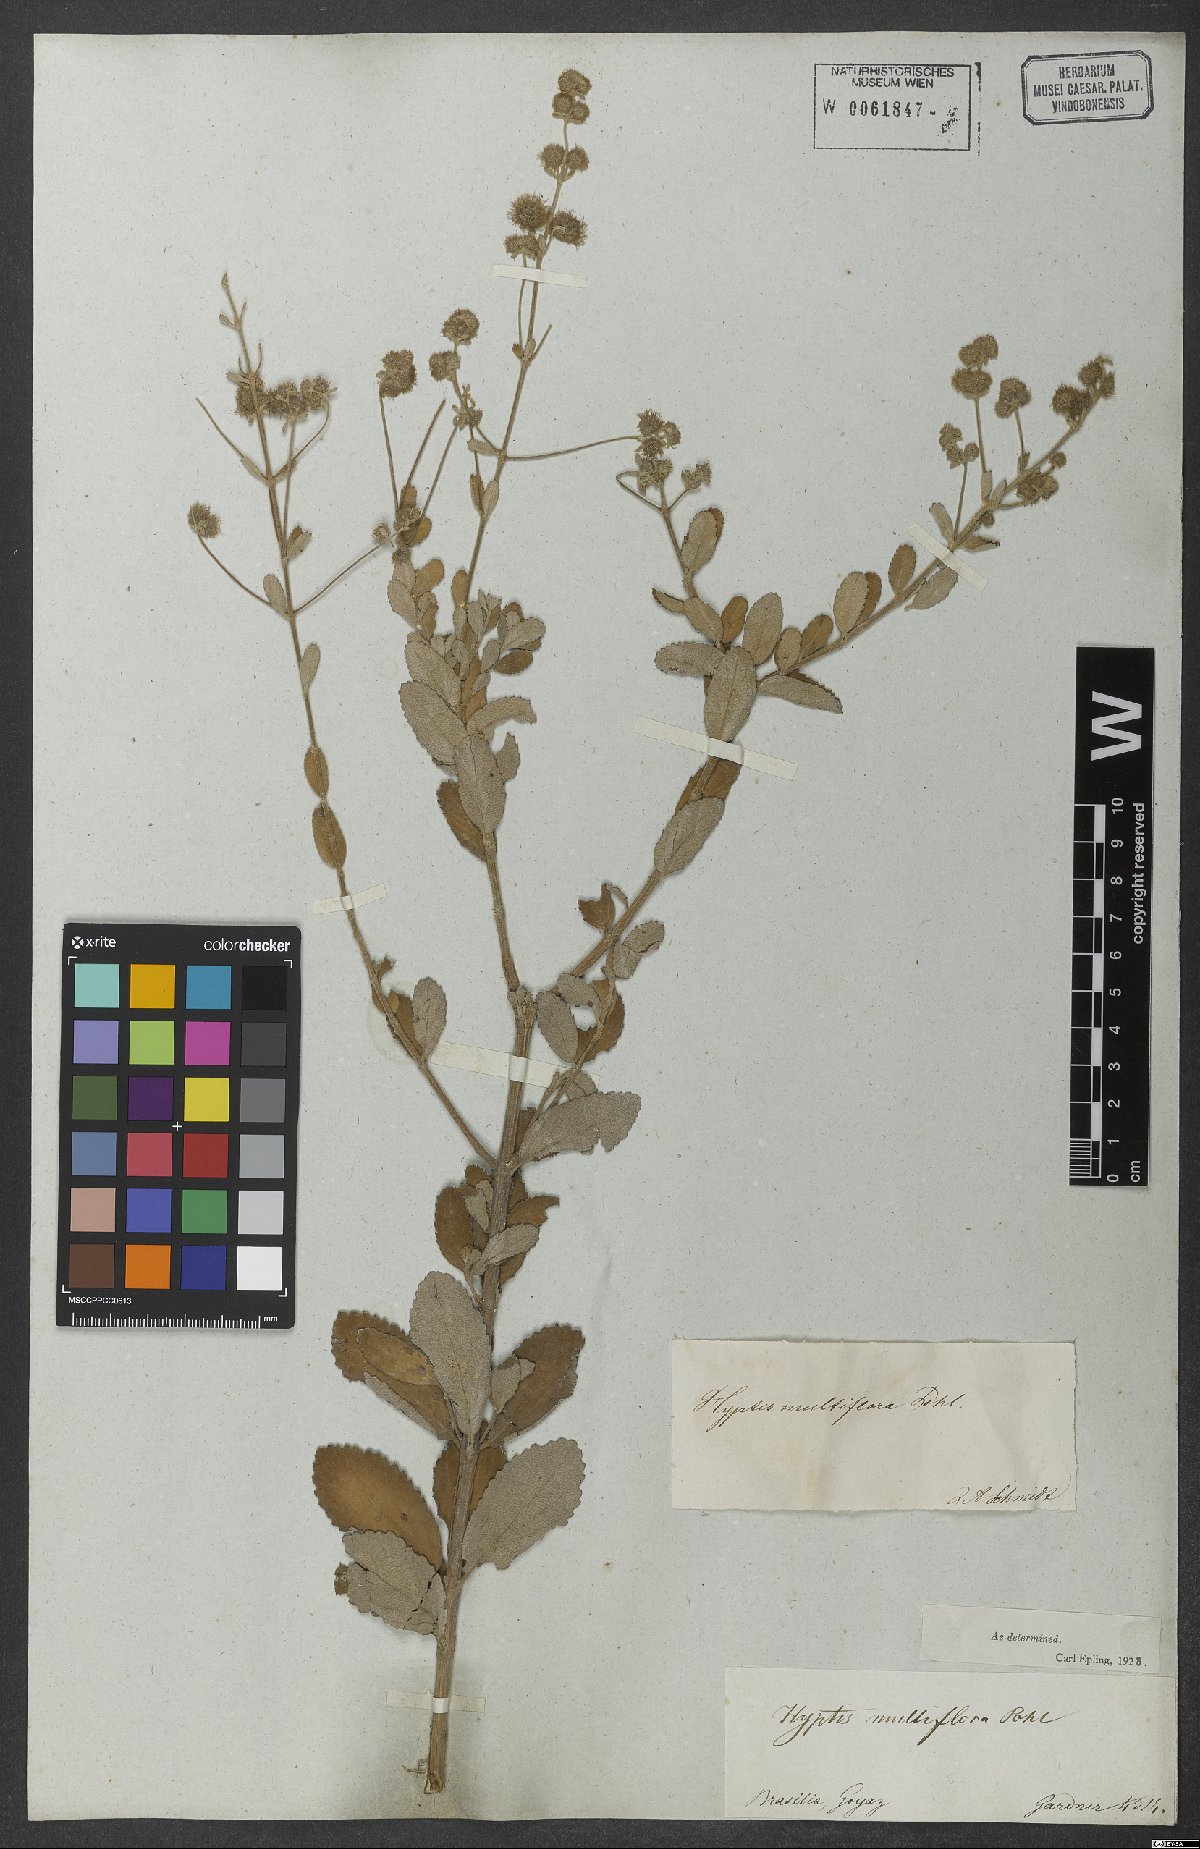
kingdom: Plantae
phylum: Tracheophyta
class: Magnoliopsida
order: Lamiales
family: Lamiaceae
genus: Medusantha
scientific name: Medusantha multiflora
